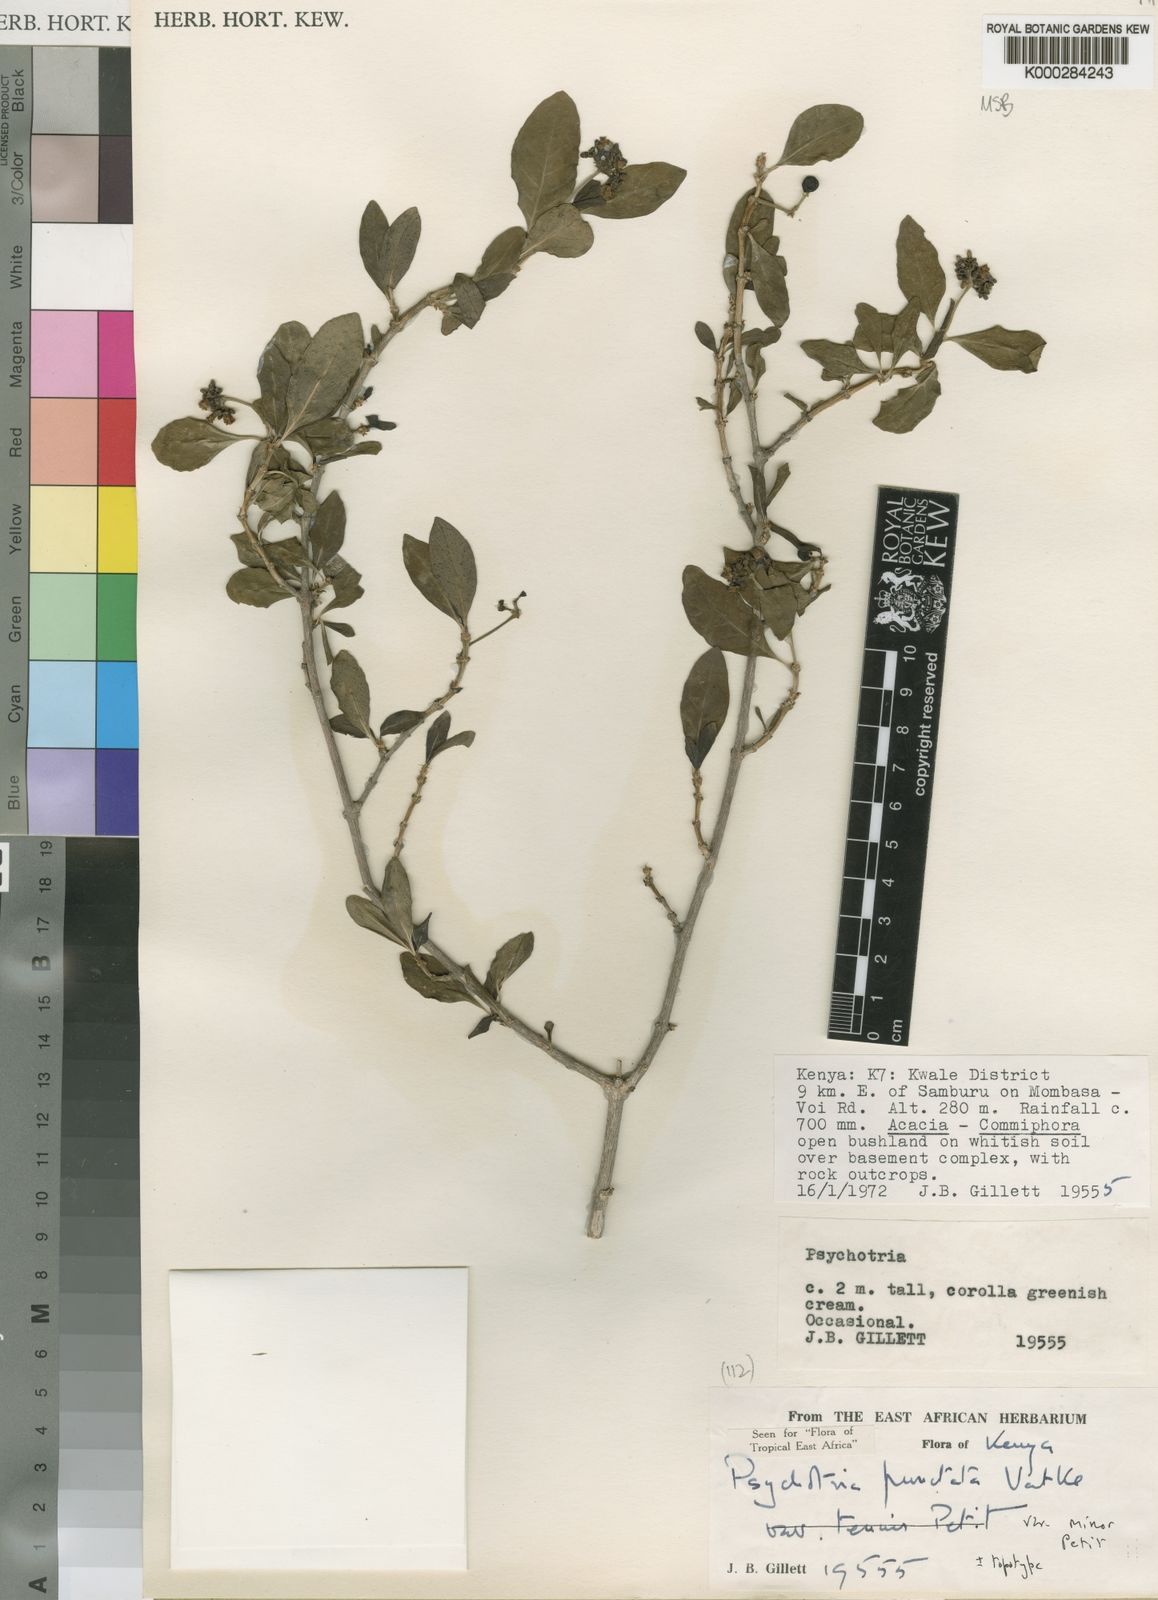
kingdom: Plantae
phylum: Tracheophyta
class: Magnoliopsida
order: Gentianales
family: Rubiaceae
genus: Psychotria
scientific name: Psychotria punctata
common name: Dotted wild coffee
